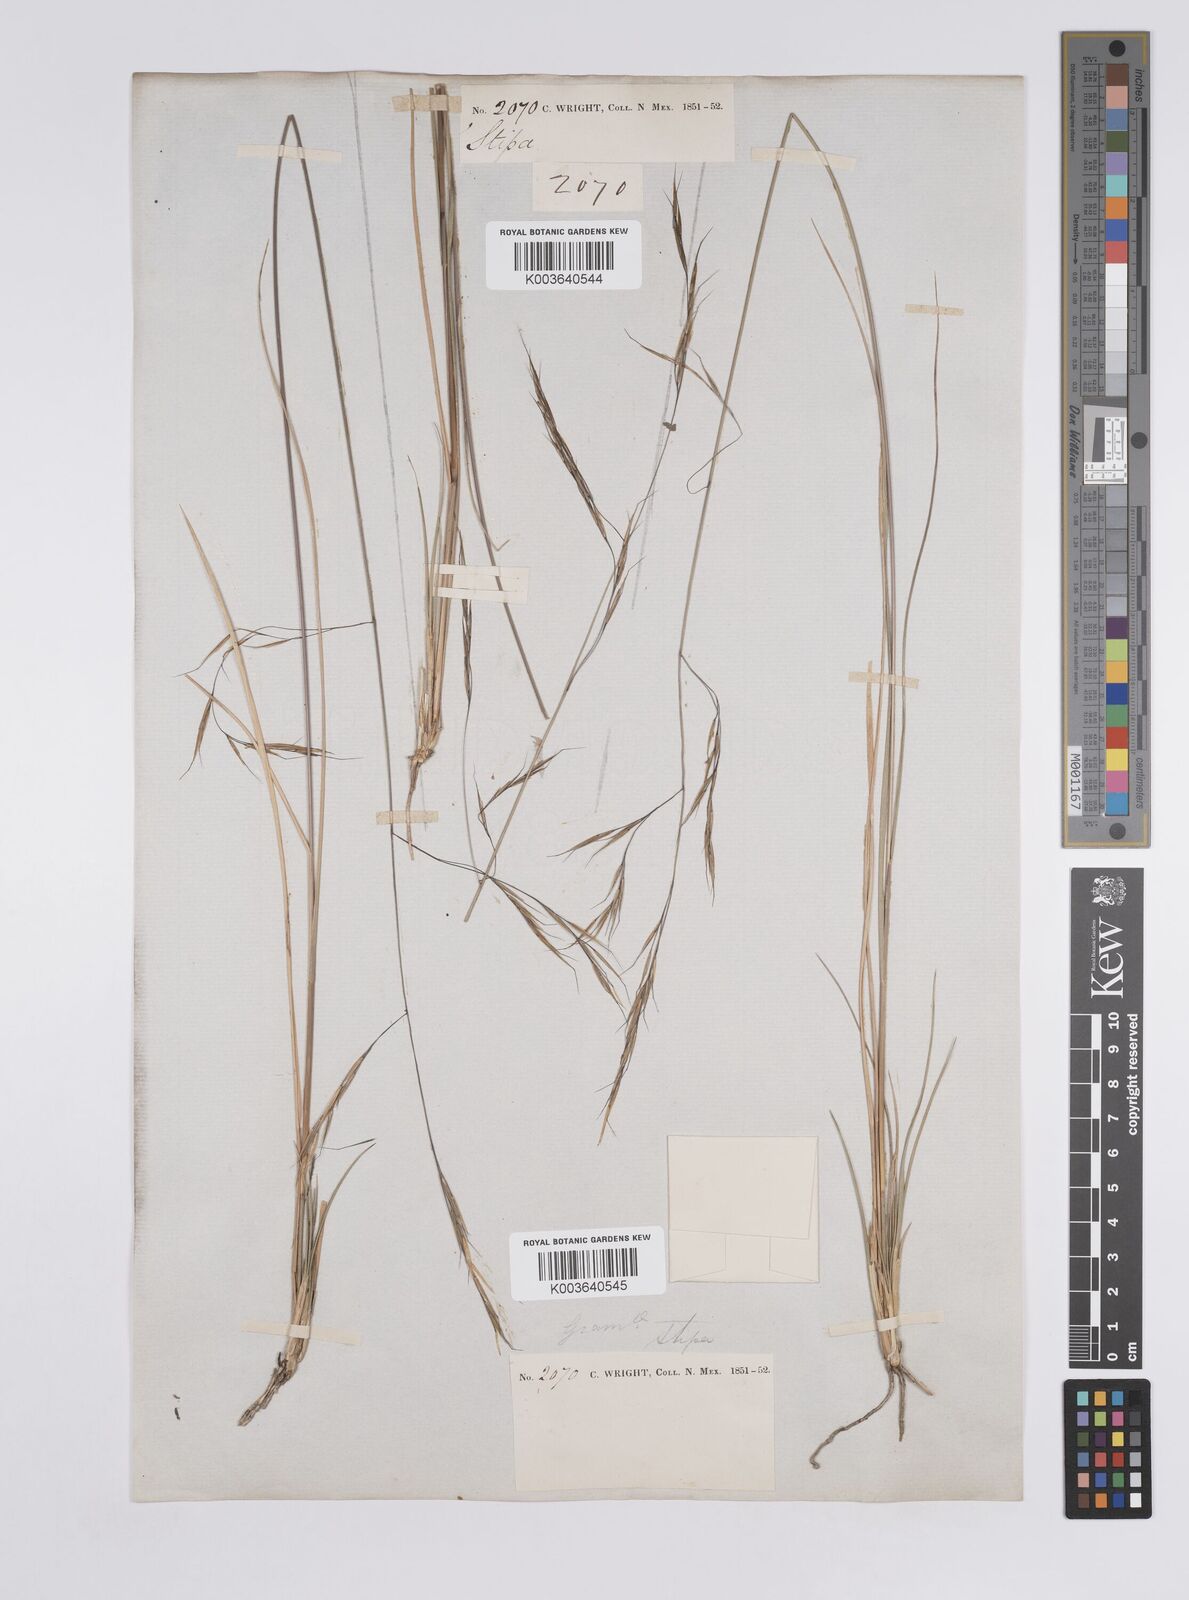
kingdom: Plantae
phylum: Tracheophyta
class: Liliopsida
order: Poales
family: Poaceae
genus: Aristida
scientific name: Aristida schiedeana
